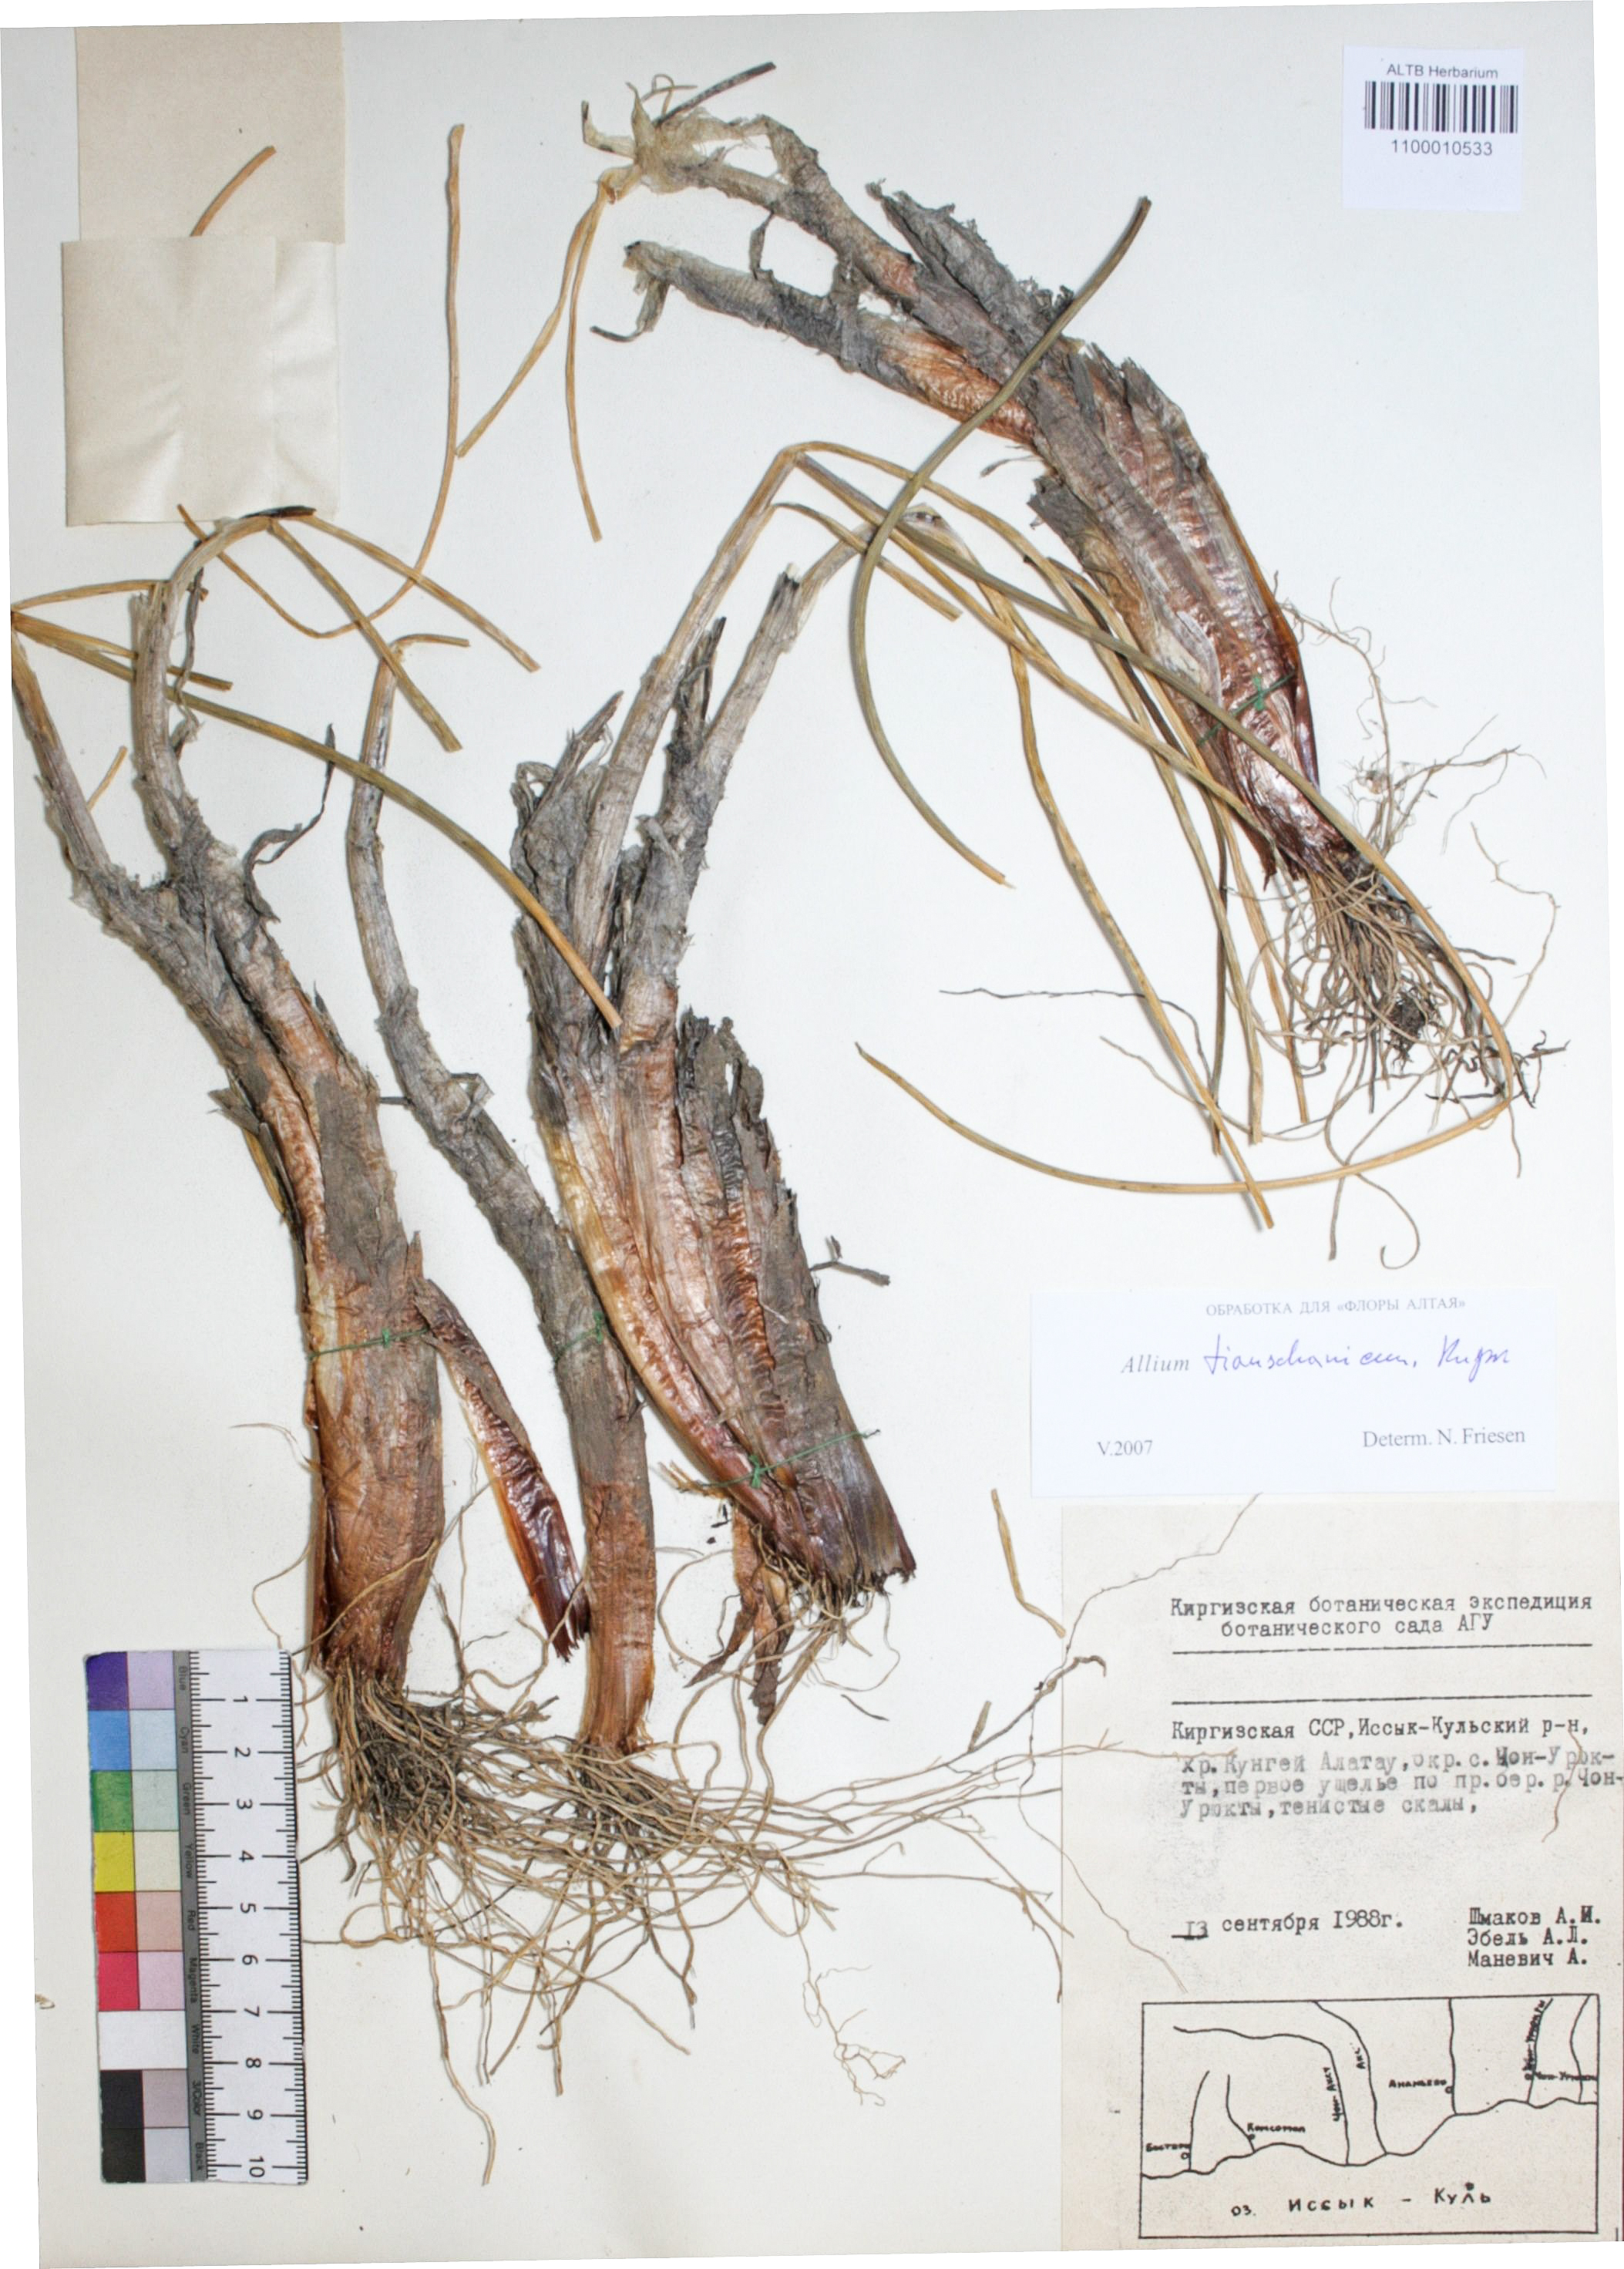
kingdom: Plantae
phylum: Tracheophyta
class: Liliopsida
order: Asparagales
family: Amaryllidaceae
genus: Allium
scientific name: Allium tianschanicum
